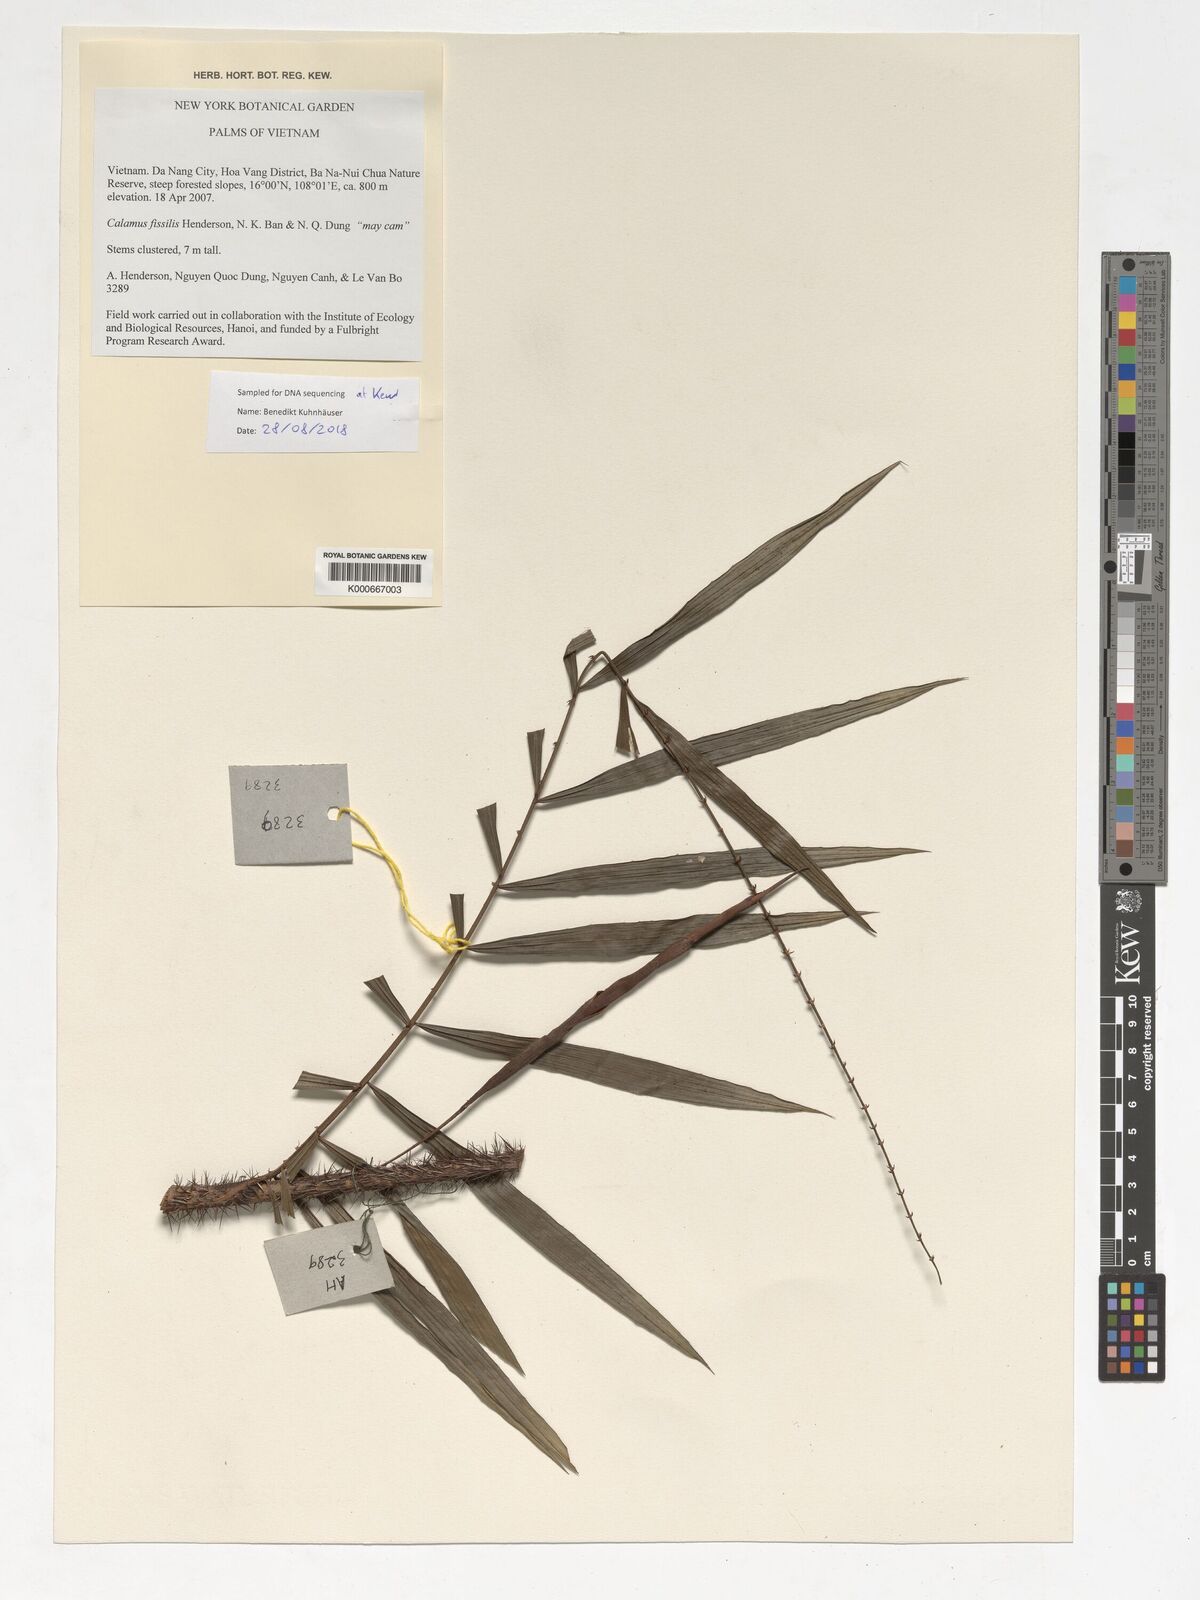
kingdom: Plantae
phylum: Tracheophyta
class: Liliopsida
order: Arecales
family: Arecaceae
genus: Calamus
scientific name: Calamus fissilis
